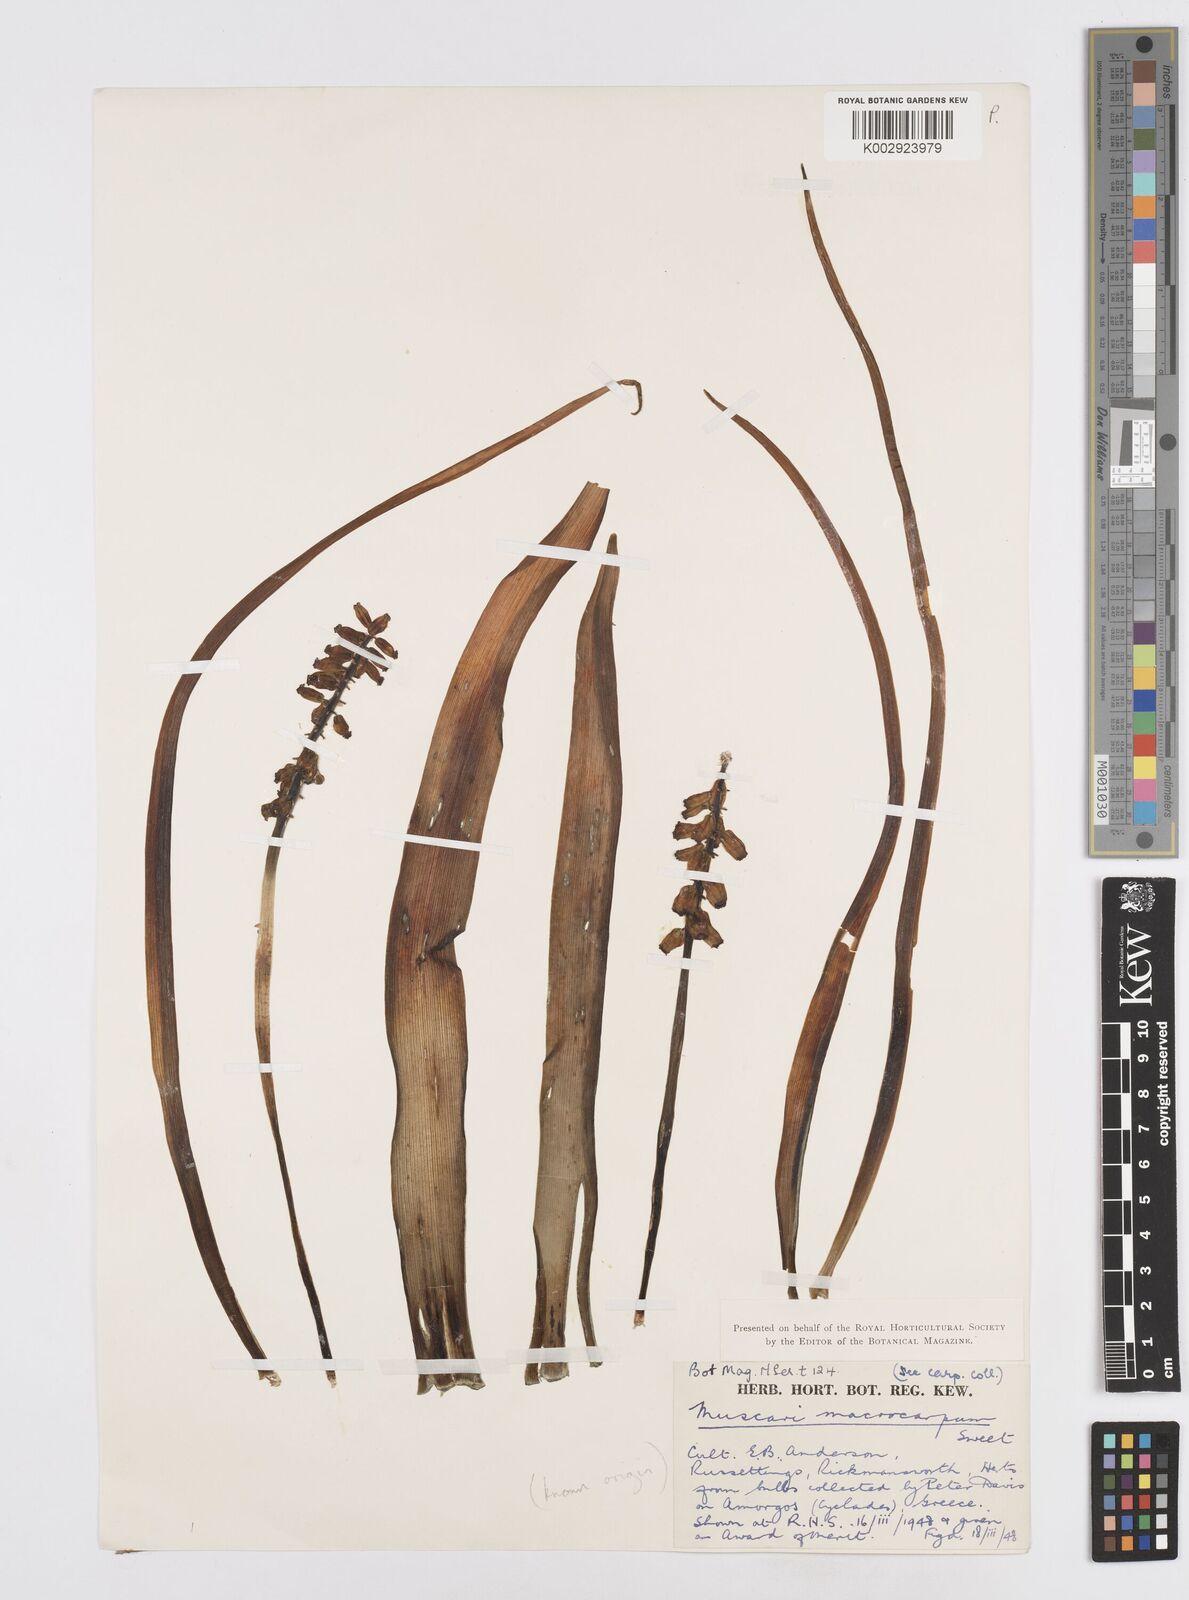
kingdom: Plantae
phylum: Tracheophyta
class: Liliopsida
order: Asparagales
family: Asparagaceae
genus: Muscarimia
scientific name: Muscarimia macrocarpa
